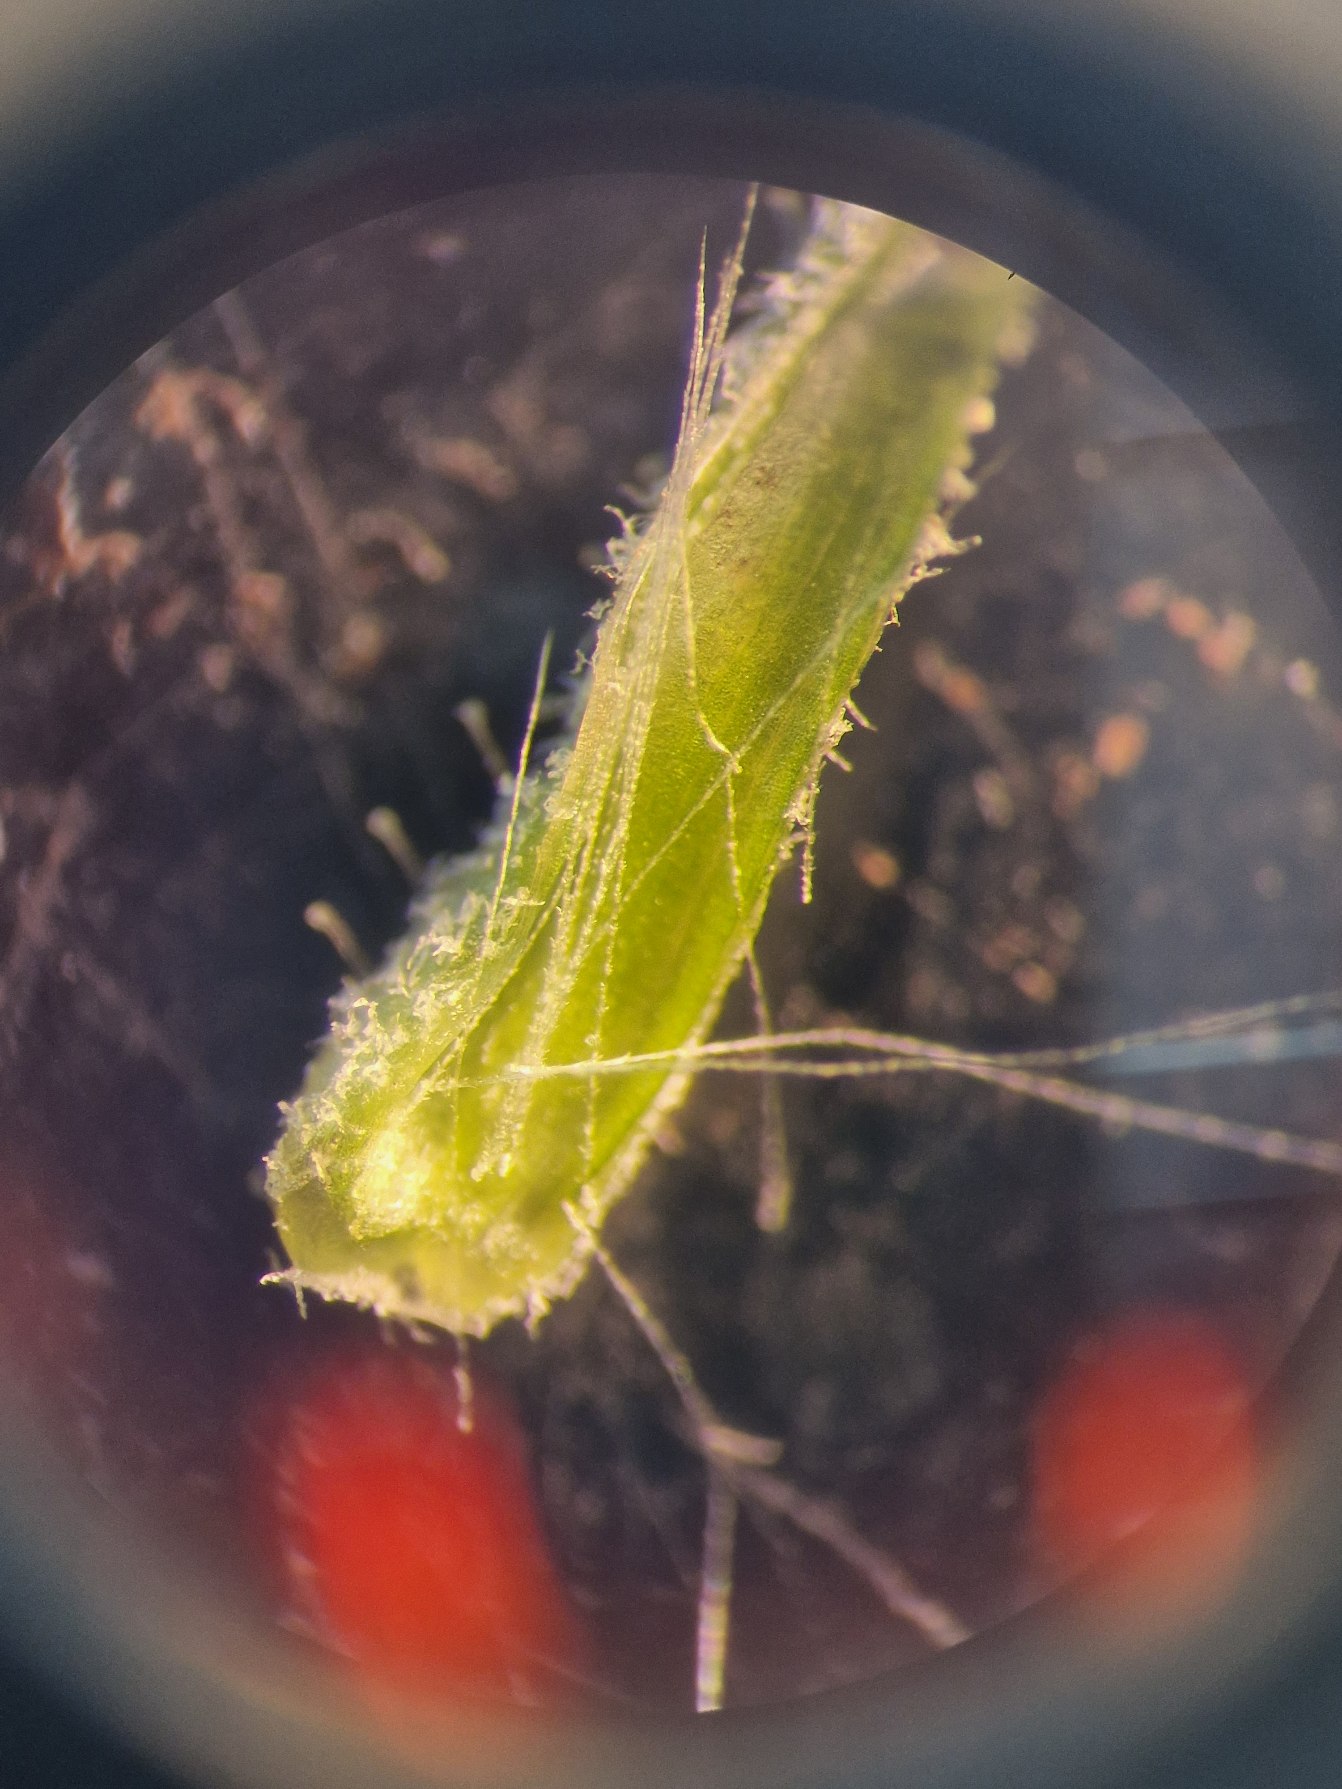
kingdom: Plantae
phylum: Tracheophyta
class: Magnoliopsida
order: Asterales
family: Asteraceae
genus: Crepis
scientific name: Crepis capillaris
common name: Grøn høgeskæg
